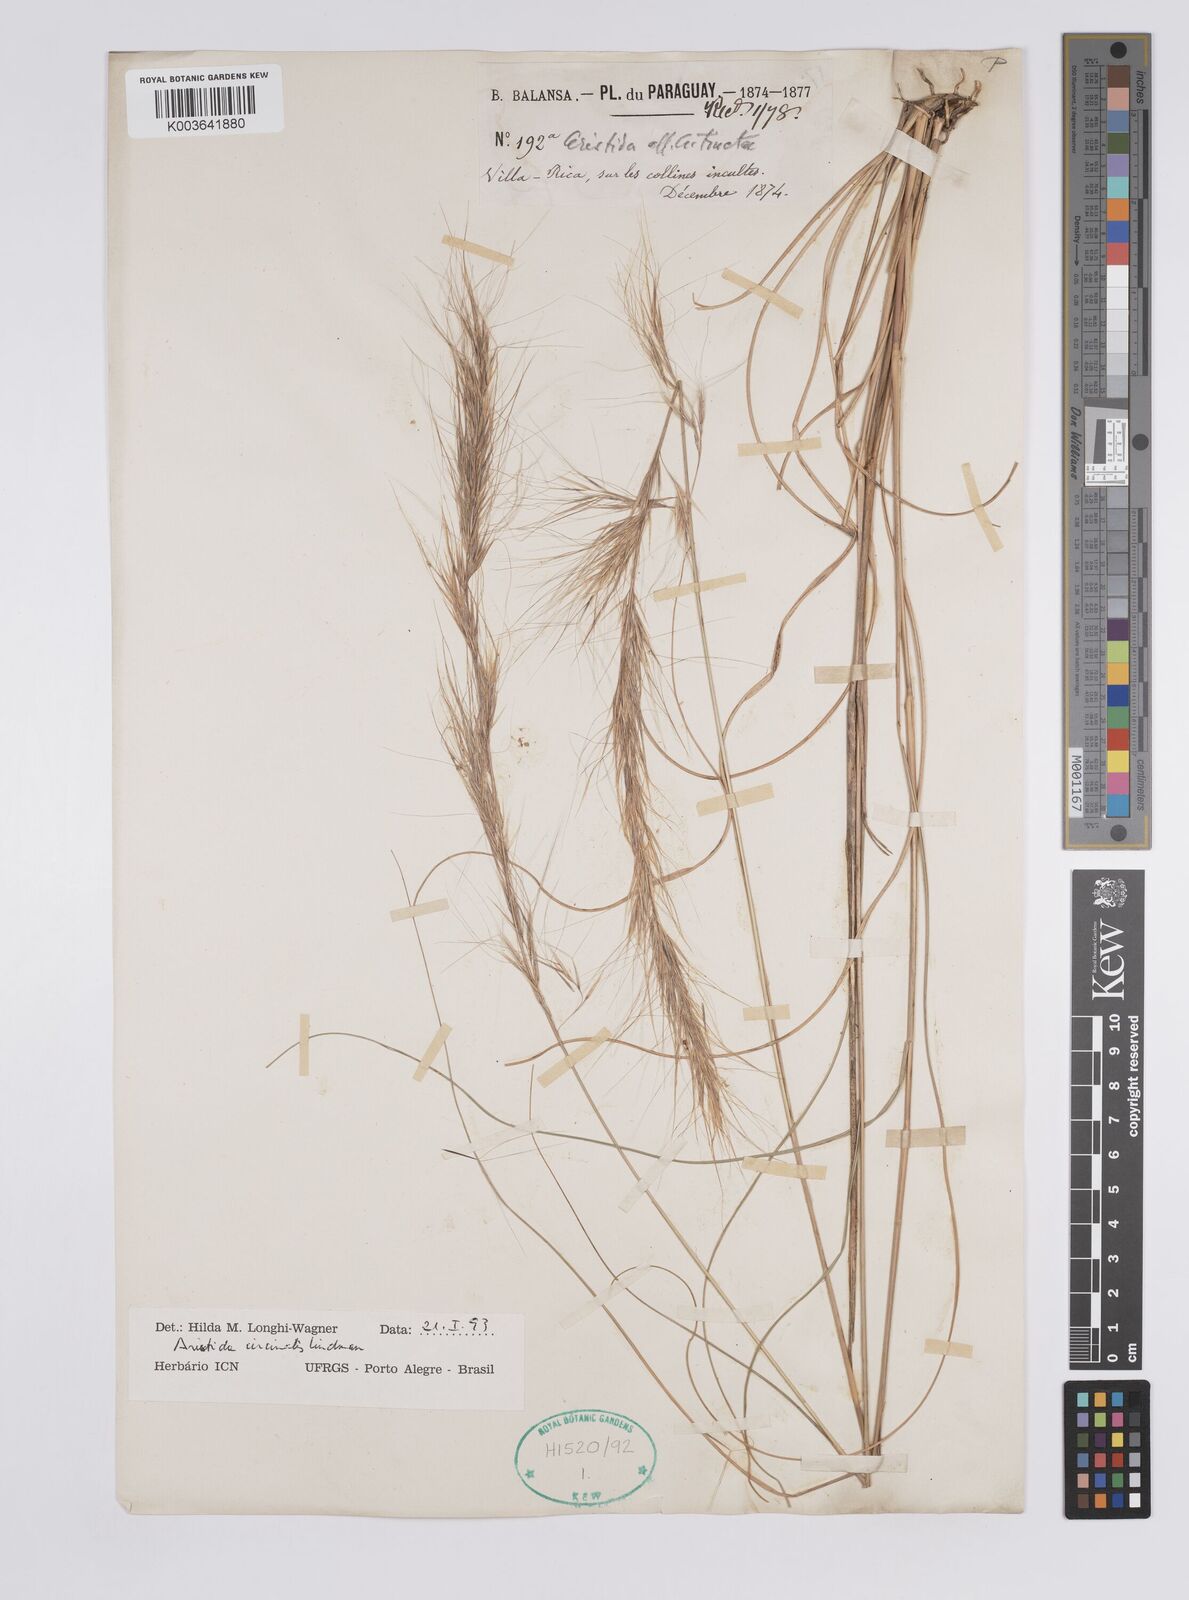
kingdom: Plantae
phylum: Tracheophyta
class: Liliopsida
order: Poales
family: Poaceae
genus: Aristida
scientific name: Aristida circinalis
